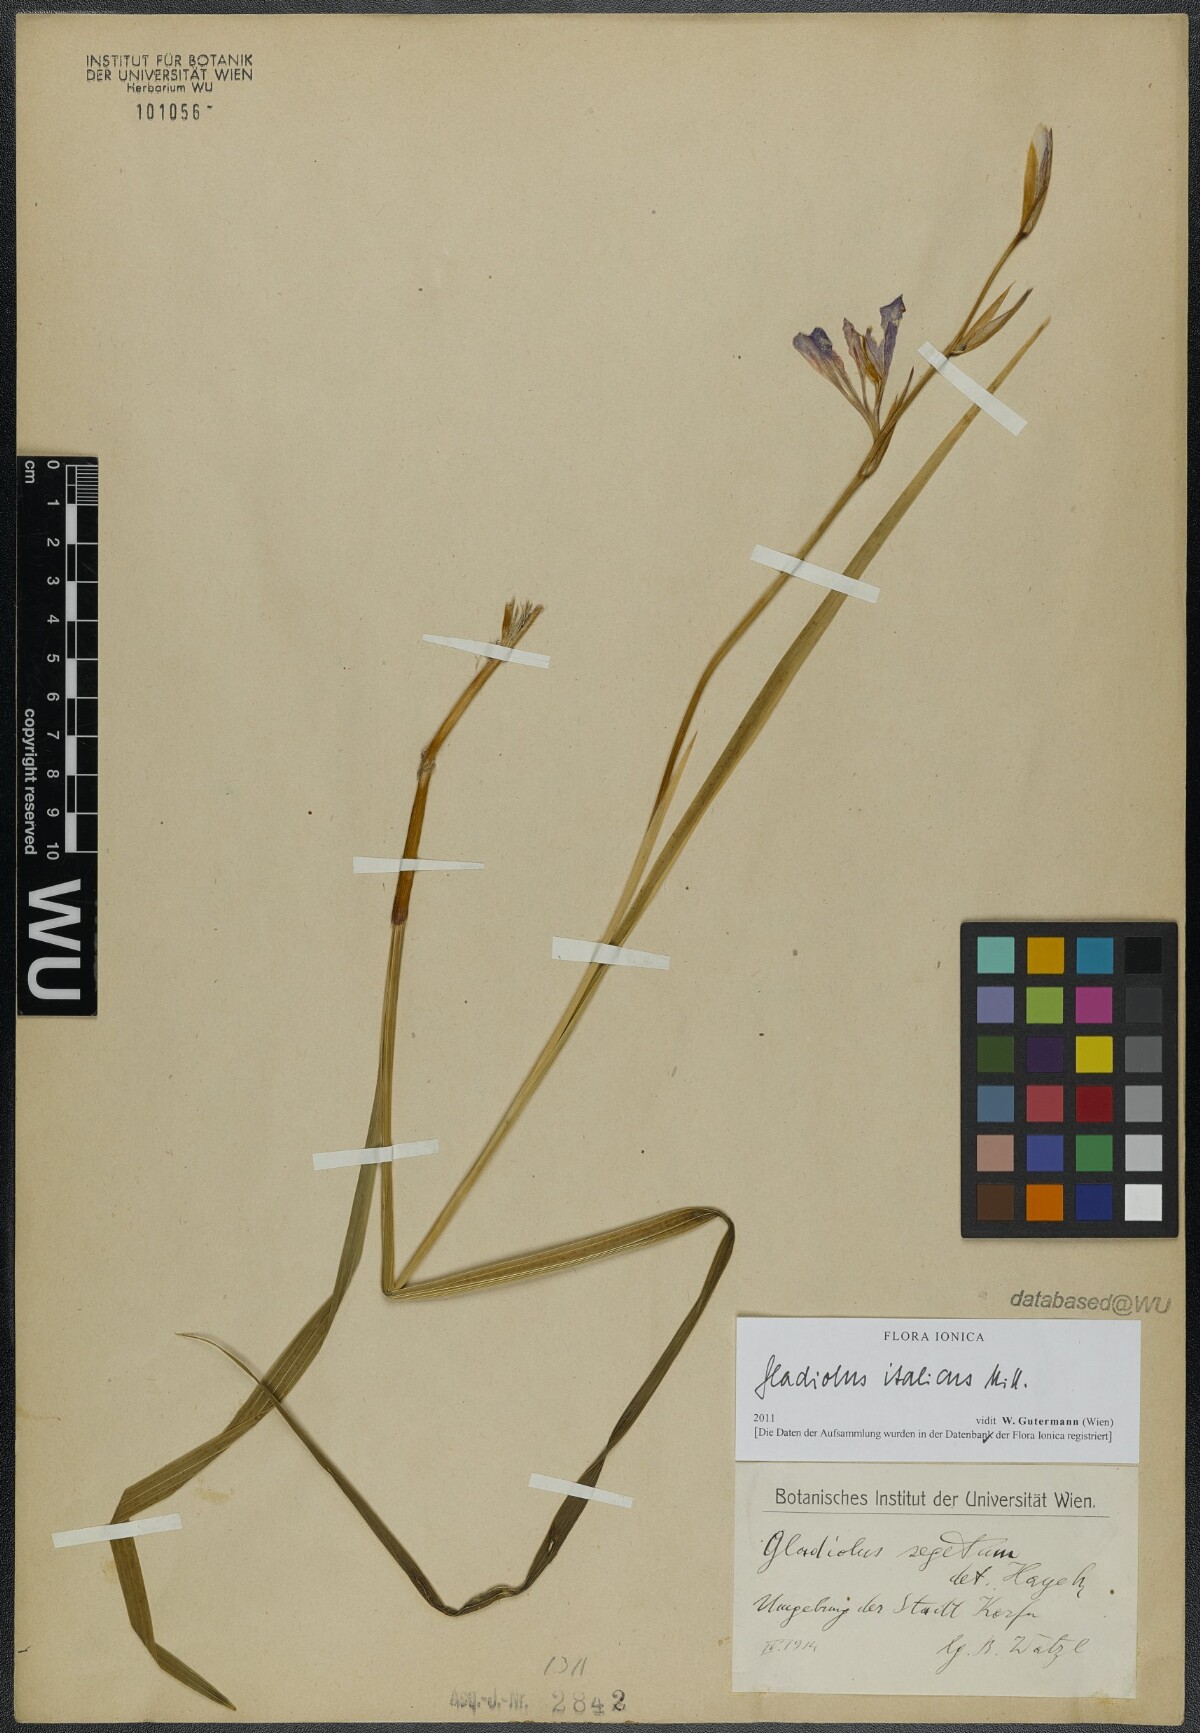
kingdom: Plantae
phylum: Tracheophyta
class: Liliopsida
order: Asparagales
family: Iridaceae
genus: Gladiolus
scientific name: Gladiolus italicus
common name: Field gladiolus
